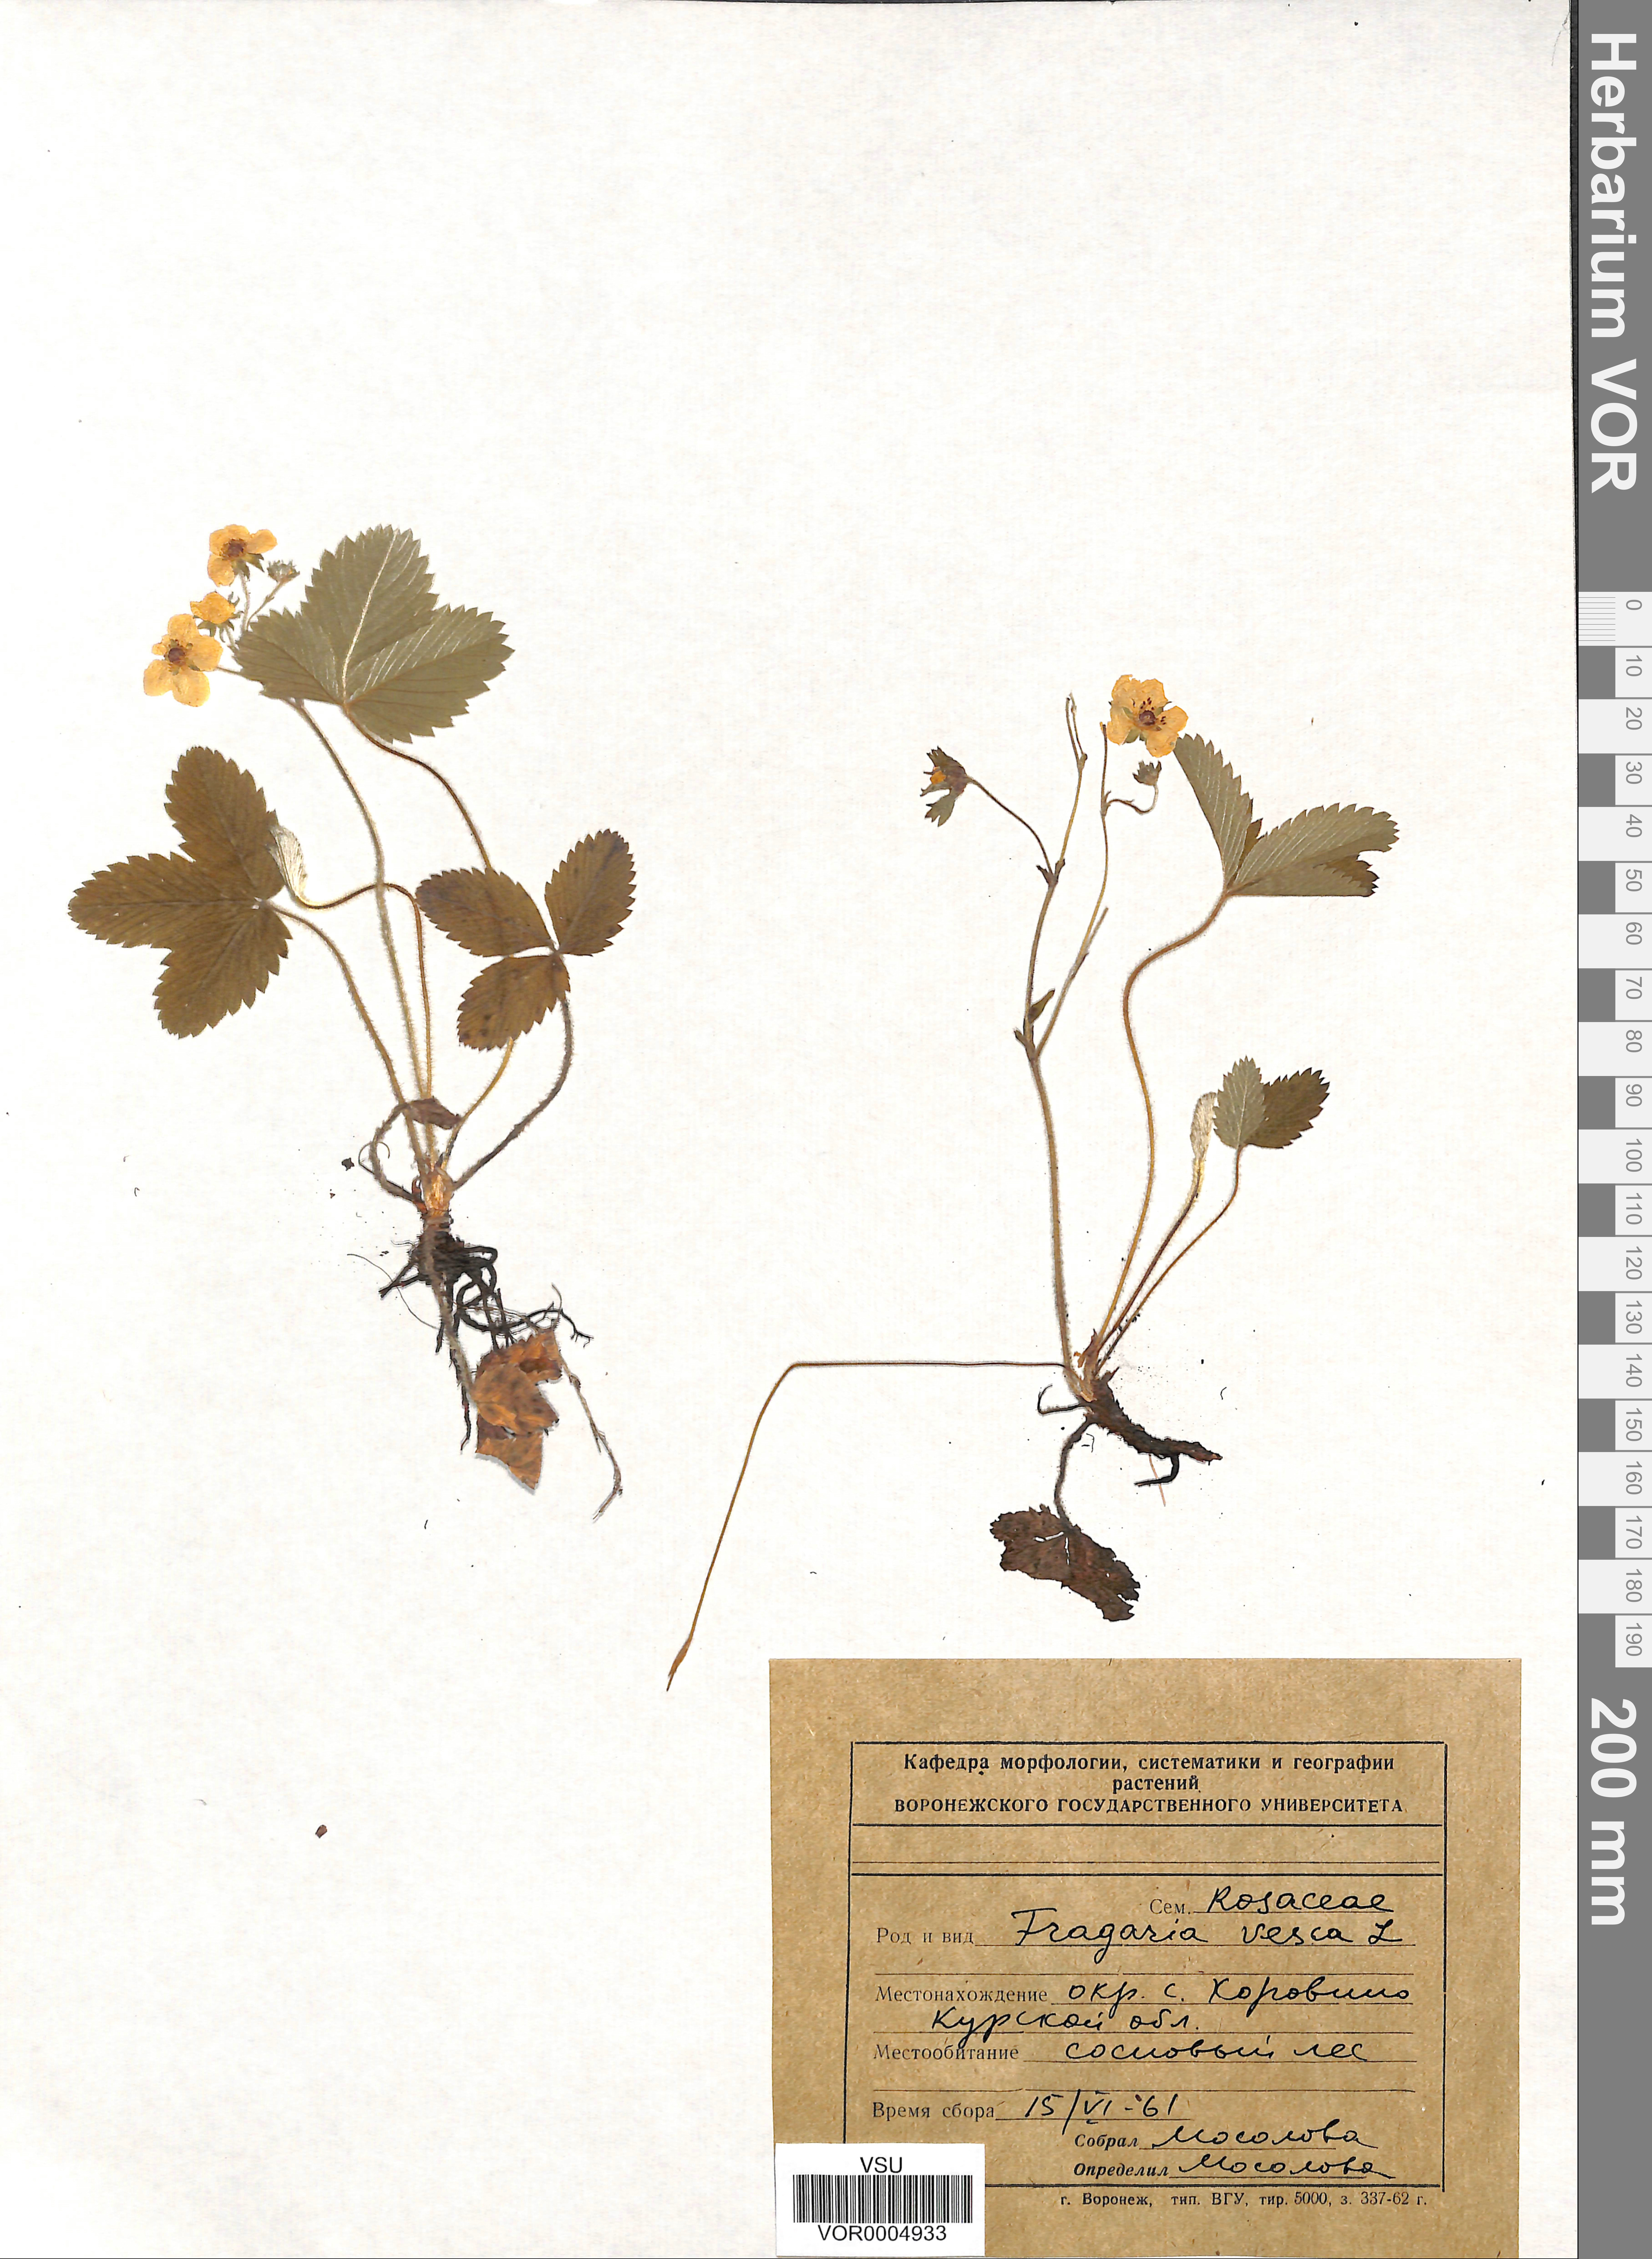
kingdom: Plantae
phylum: Tracheophyta
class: Magnoliopsida
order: Rosales
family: Rosaceae
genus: Fragaria
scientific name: Fragaria vesca
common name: Wild strawberry
